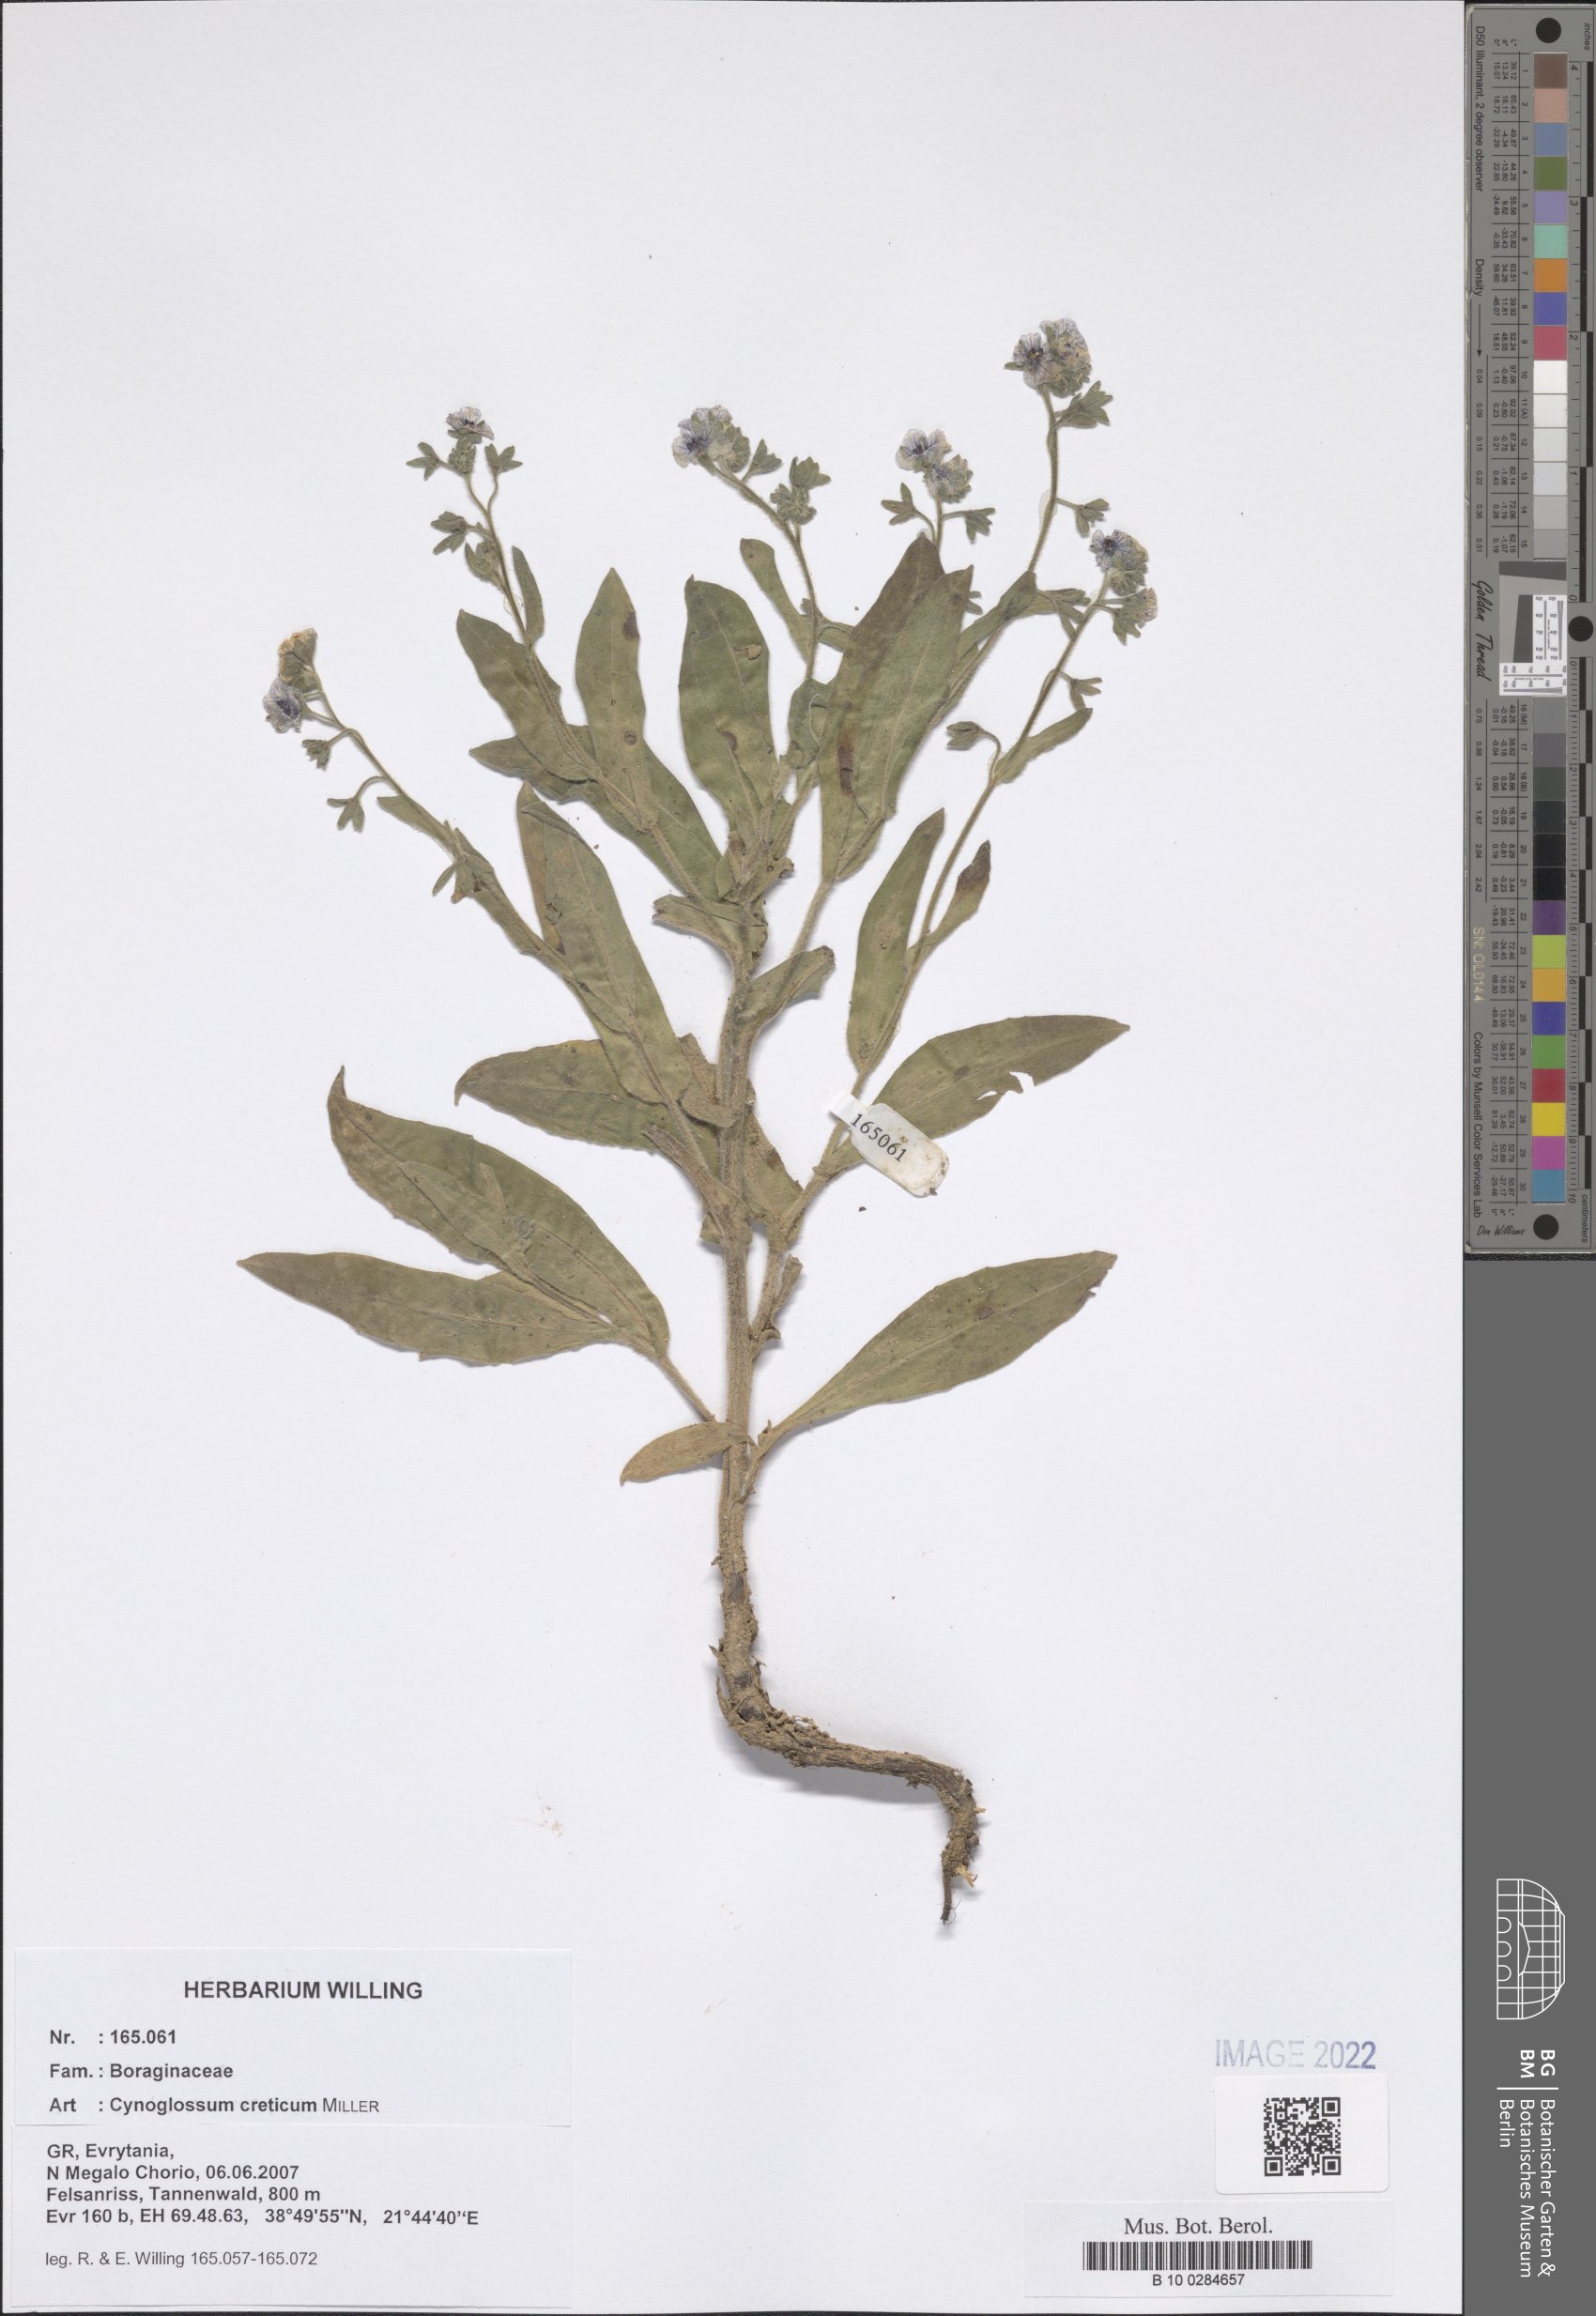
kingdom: Plantae
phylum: Tracheophyta
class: Magnoliopsida
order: Boraginales
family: Boraginaceae
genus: Cynoglossum
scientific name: Cynoglossum creticum
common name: Blue hound's tongue
